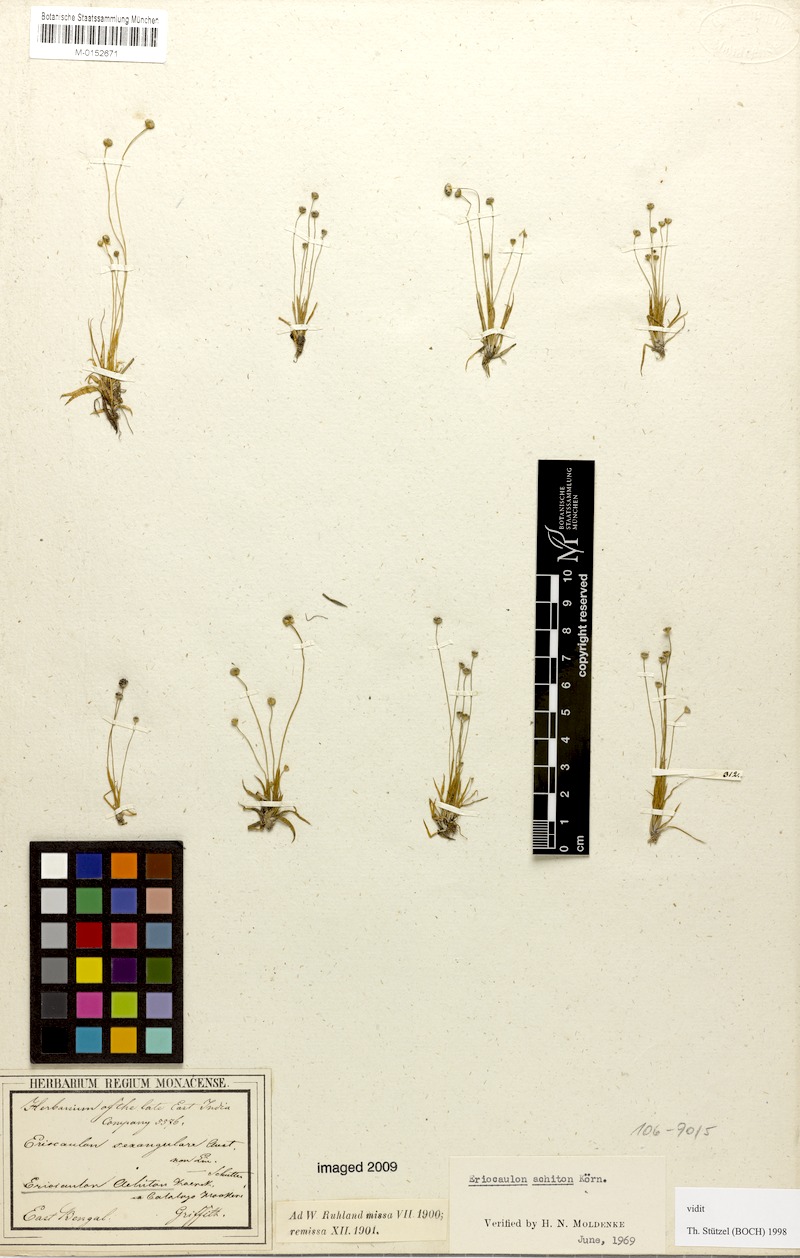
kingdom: Plantae
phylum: Tracheophyta
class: Liliopsida
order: Poales
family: Eriocaulaceae
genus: Eriocaulon
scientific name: Eriocaulon achiton
